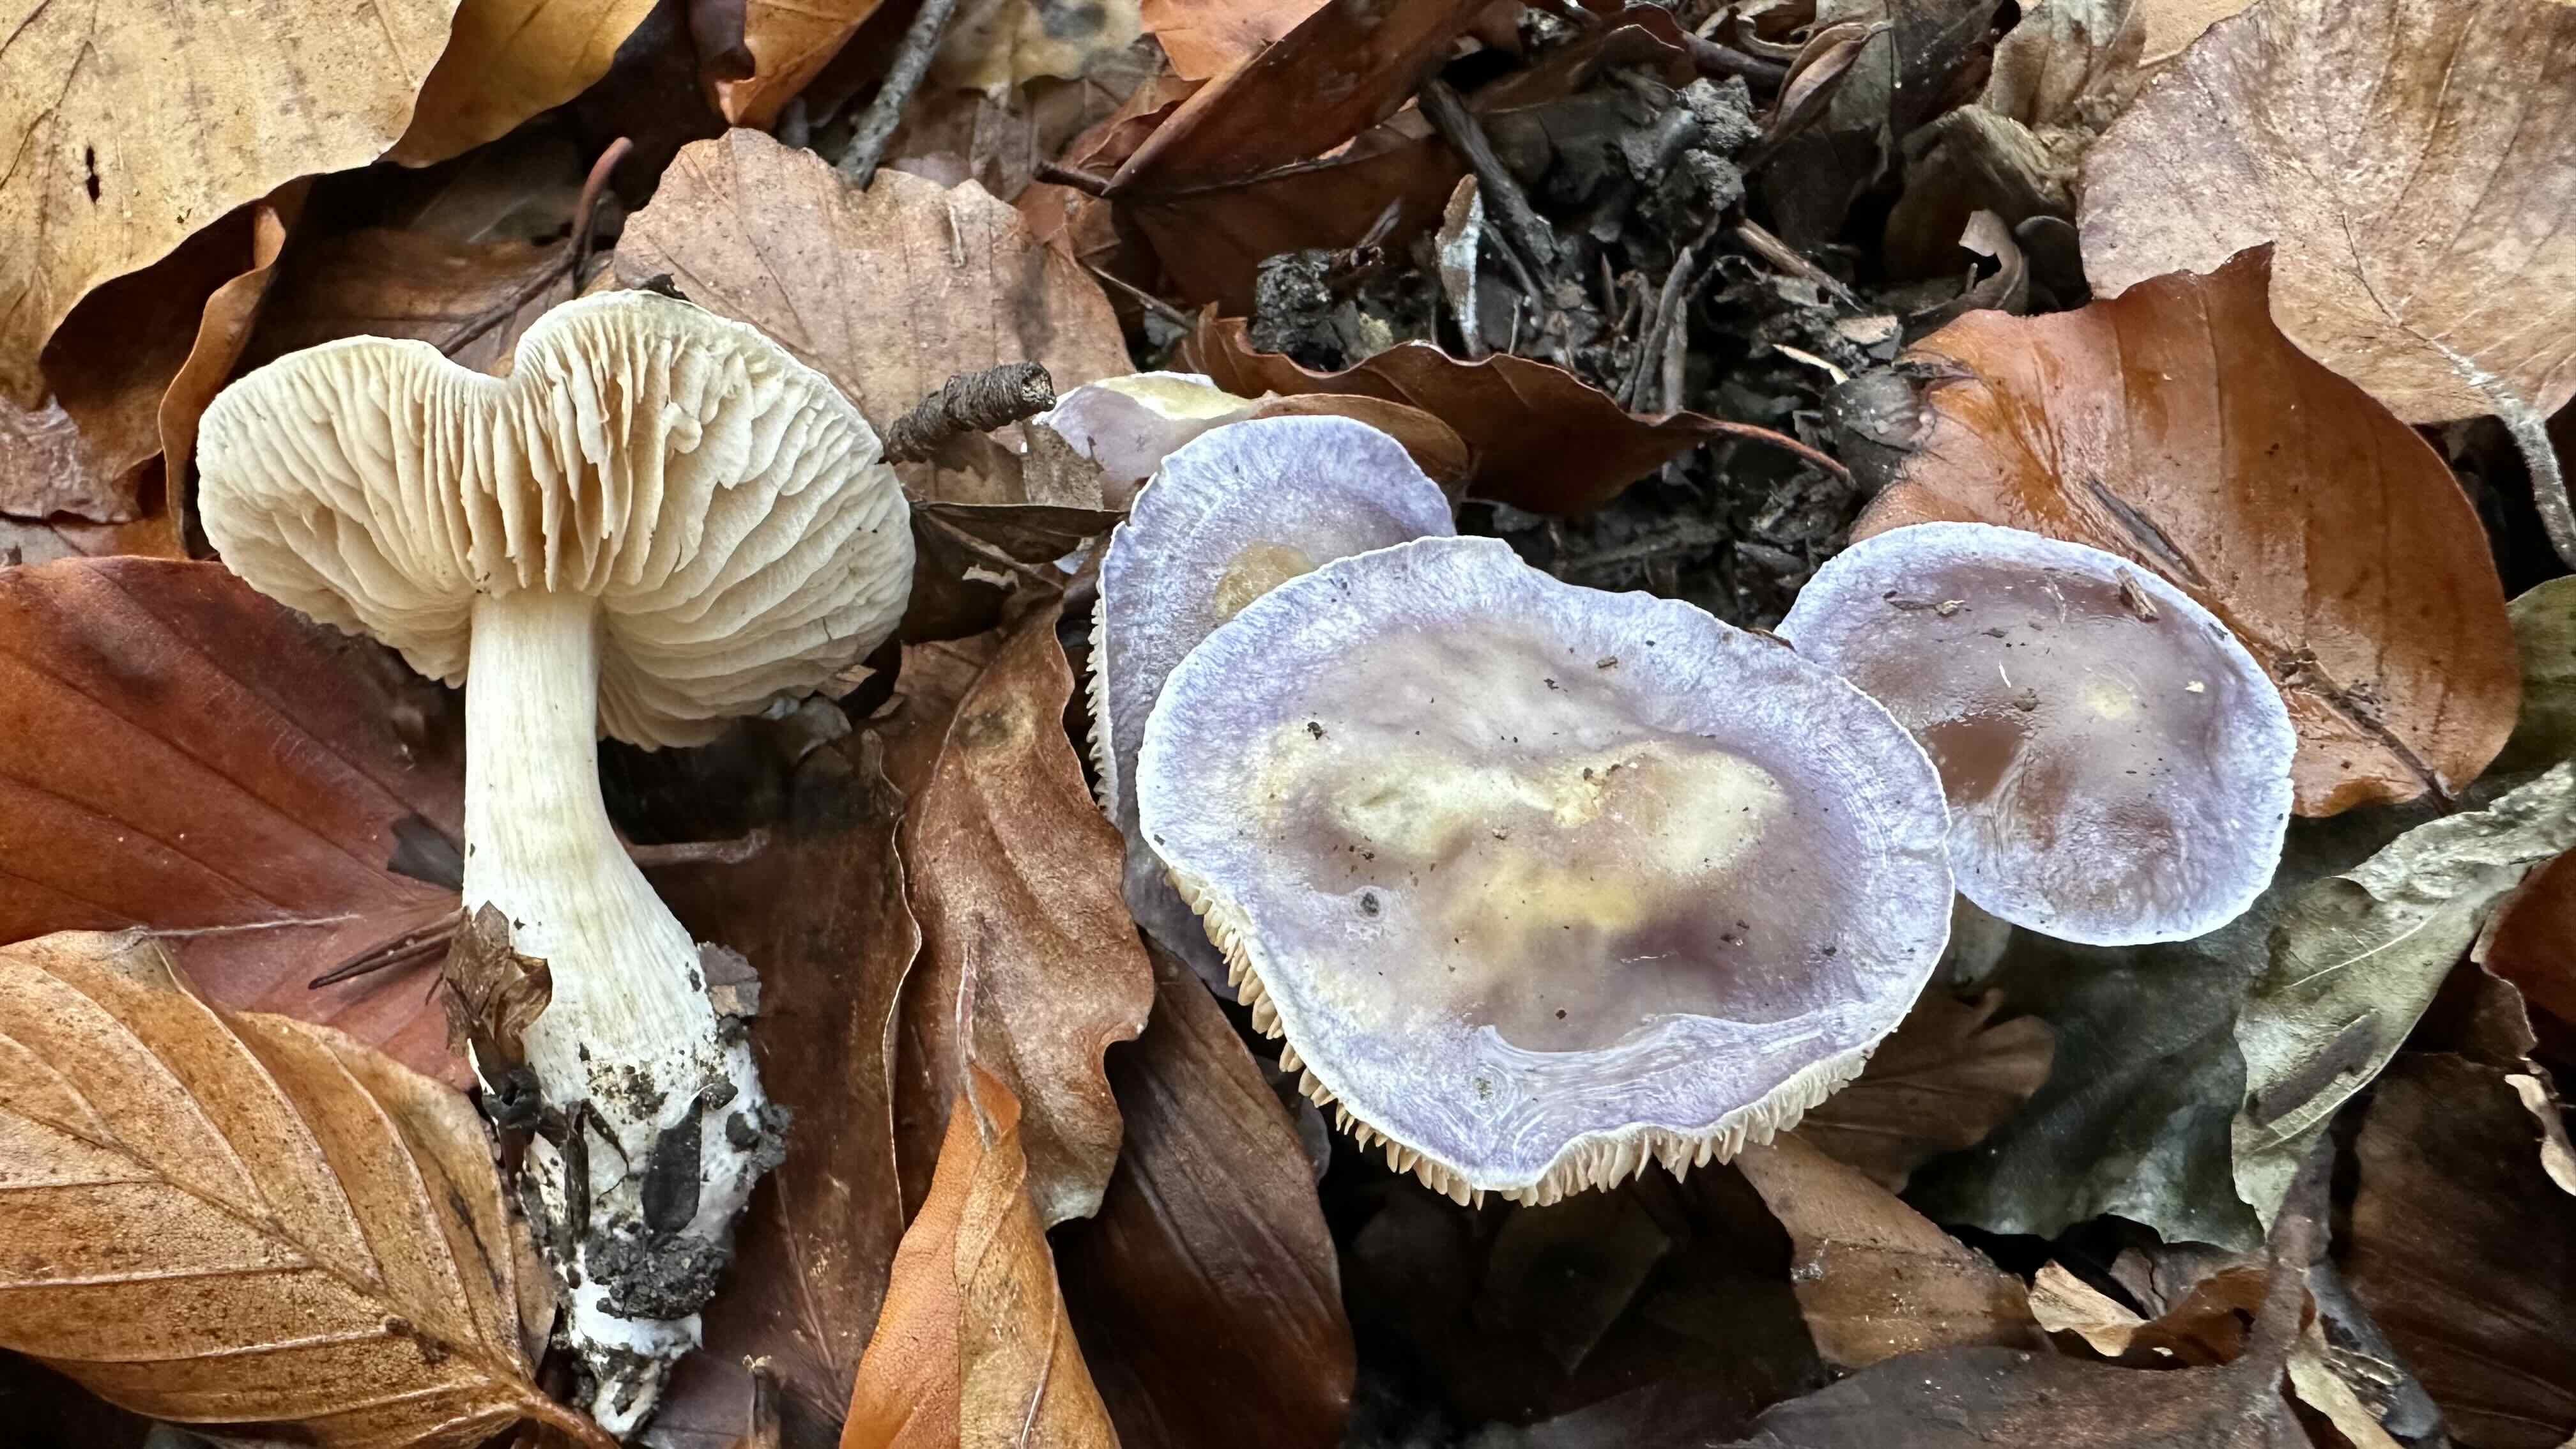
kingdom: Fungi
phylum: Basidiomycota
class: Agaricomycetes
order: Agaricales
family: Cortinariaceae
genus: Thaxterogaster
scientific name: Thaxterogaster croceocoeruleus
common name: blågullig slørhat
